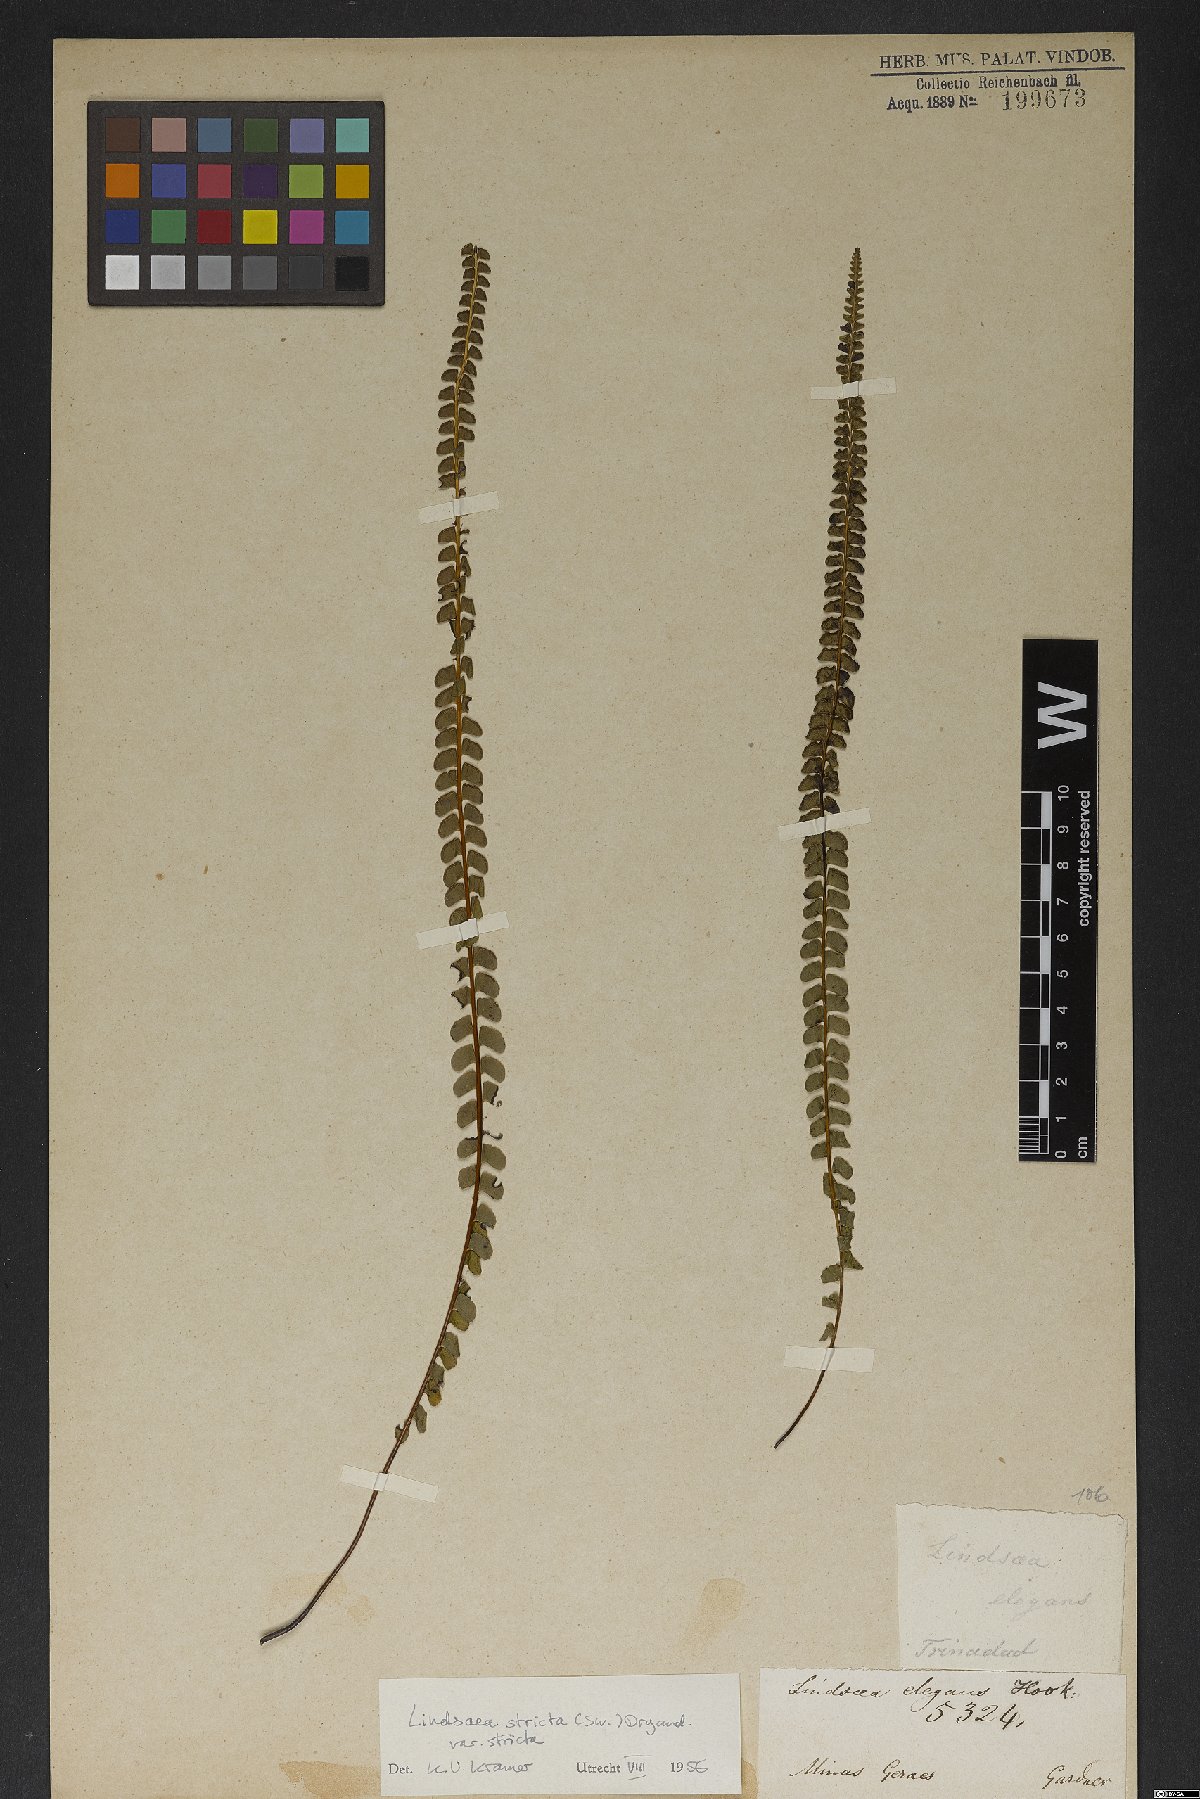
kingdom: Plantae
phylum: Tracheophyta
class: Polypodiopsida
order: Polypodiales
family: Lindsaeaceae
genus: Lindsaea
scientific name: Lindsaea stricta
